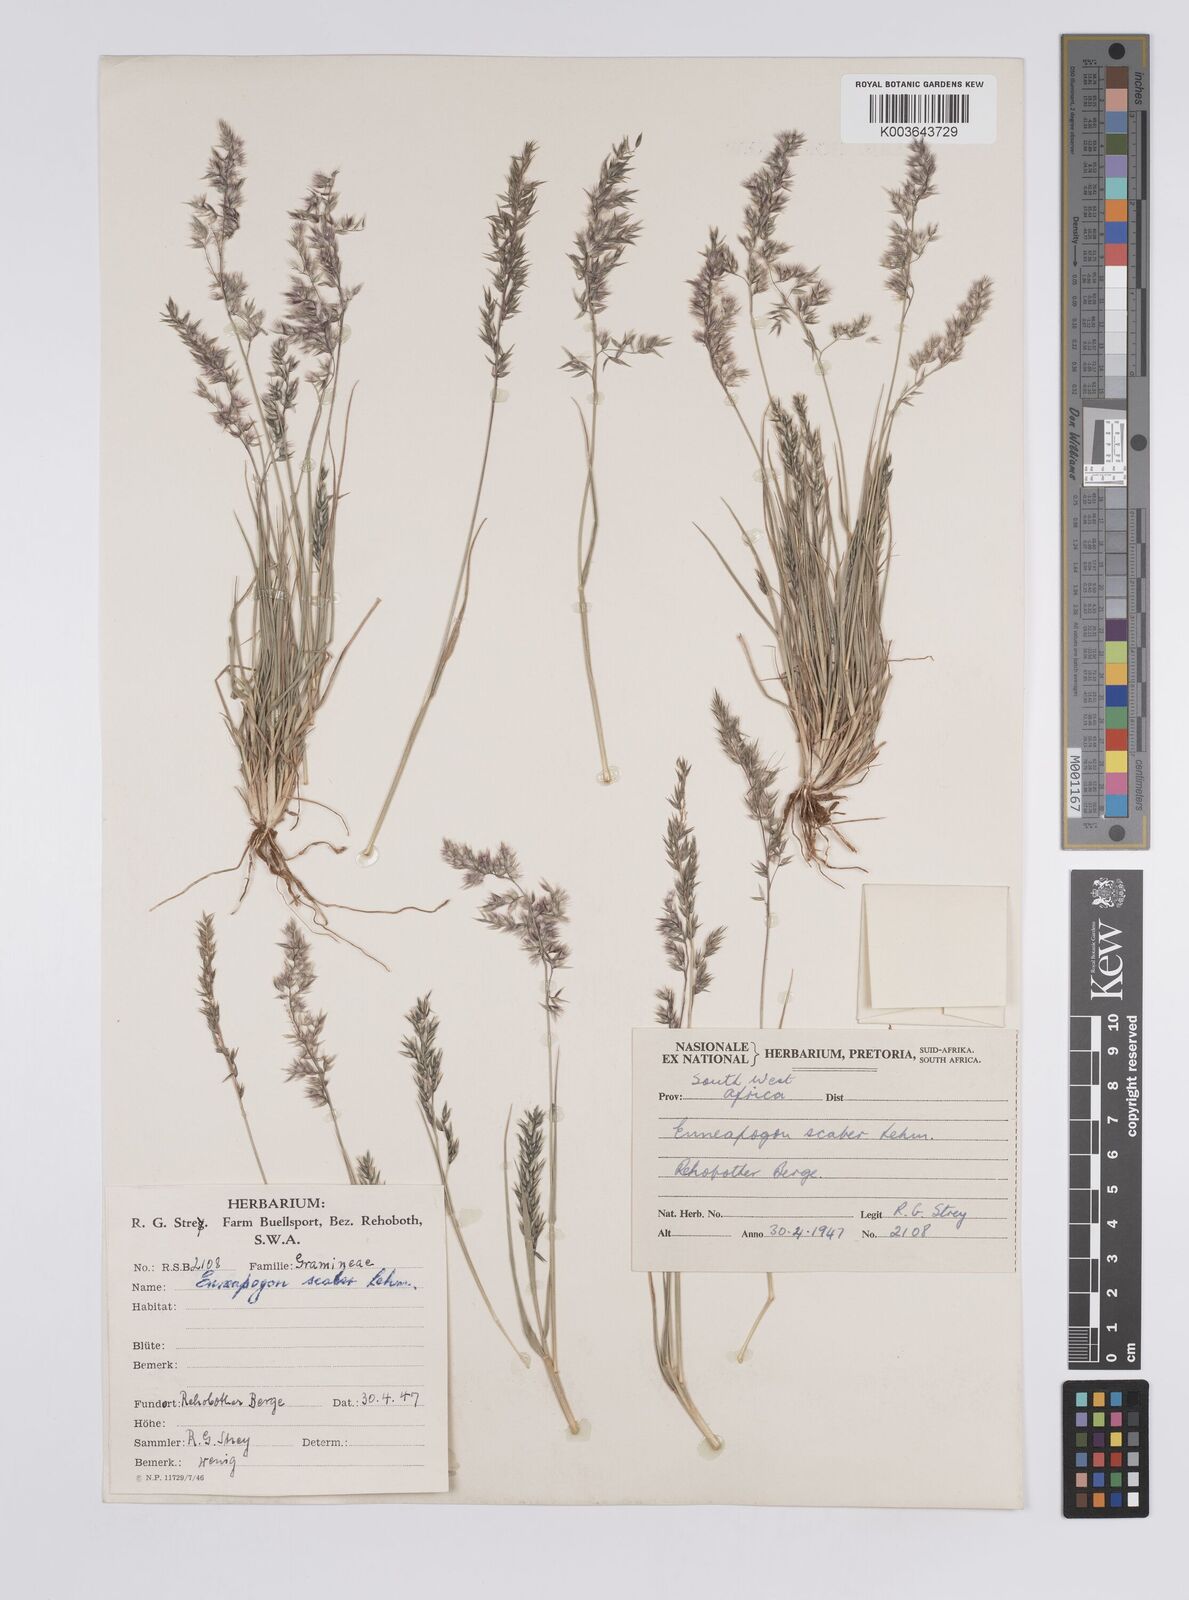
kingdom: Plantae
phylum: Tracheophyta
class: Liliopsida
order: Poales
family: Poaceae
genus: Enneapogon
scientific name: Enneapogon scaber
